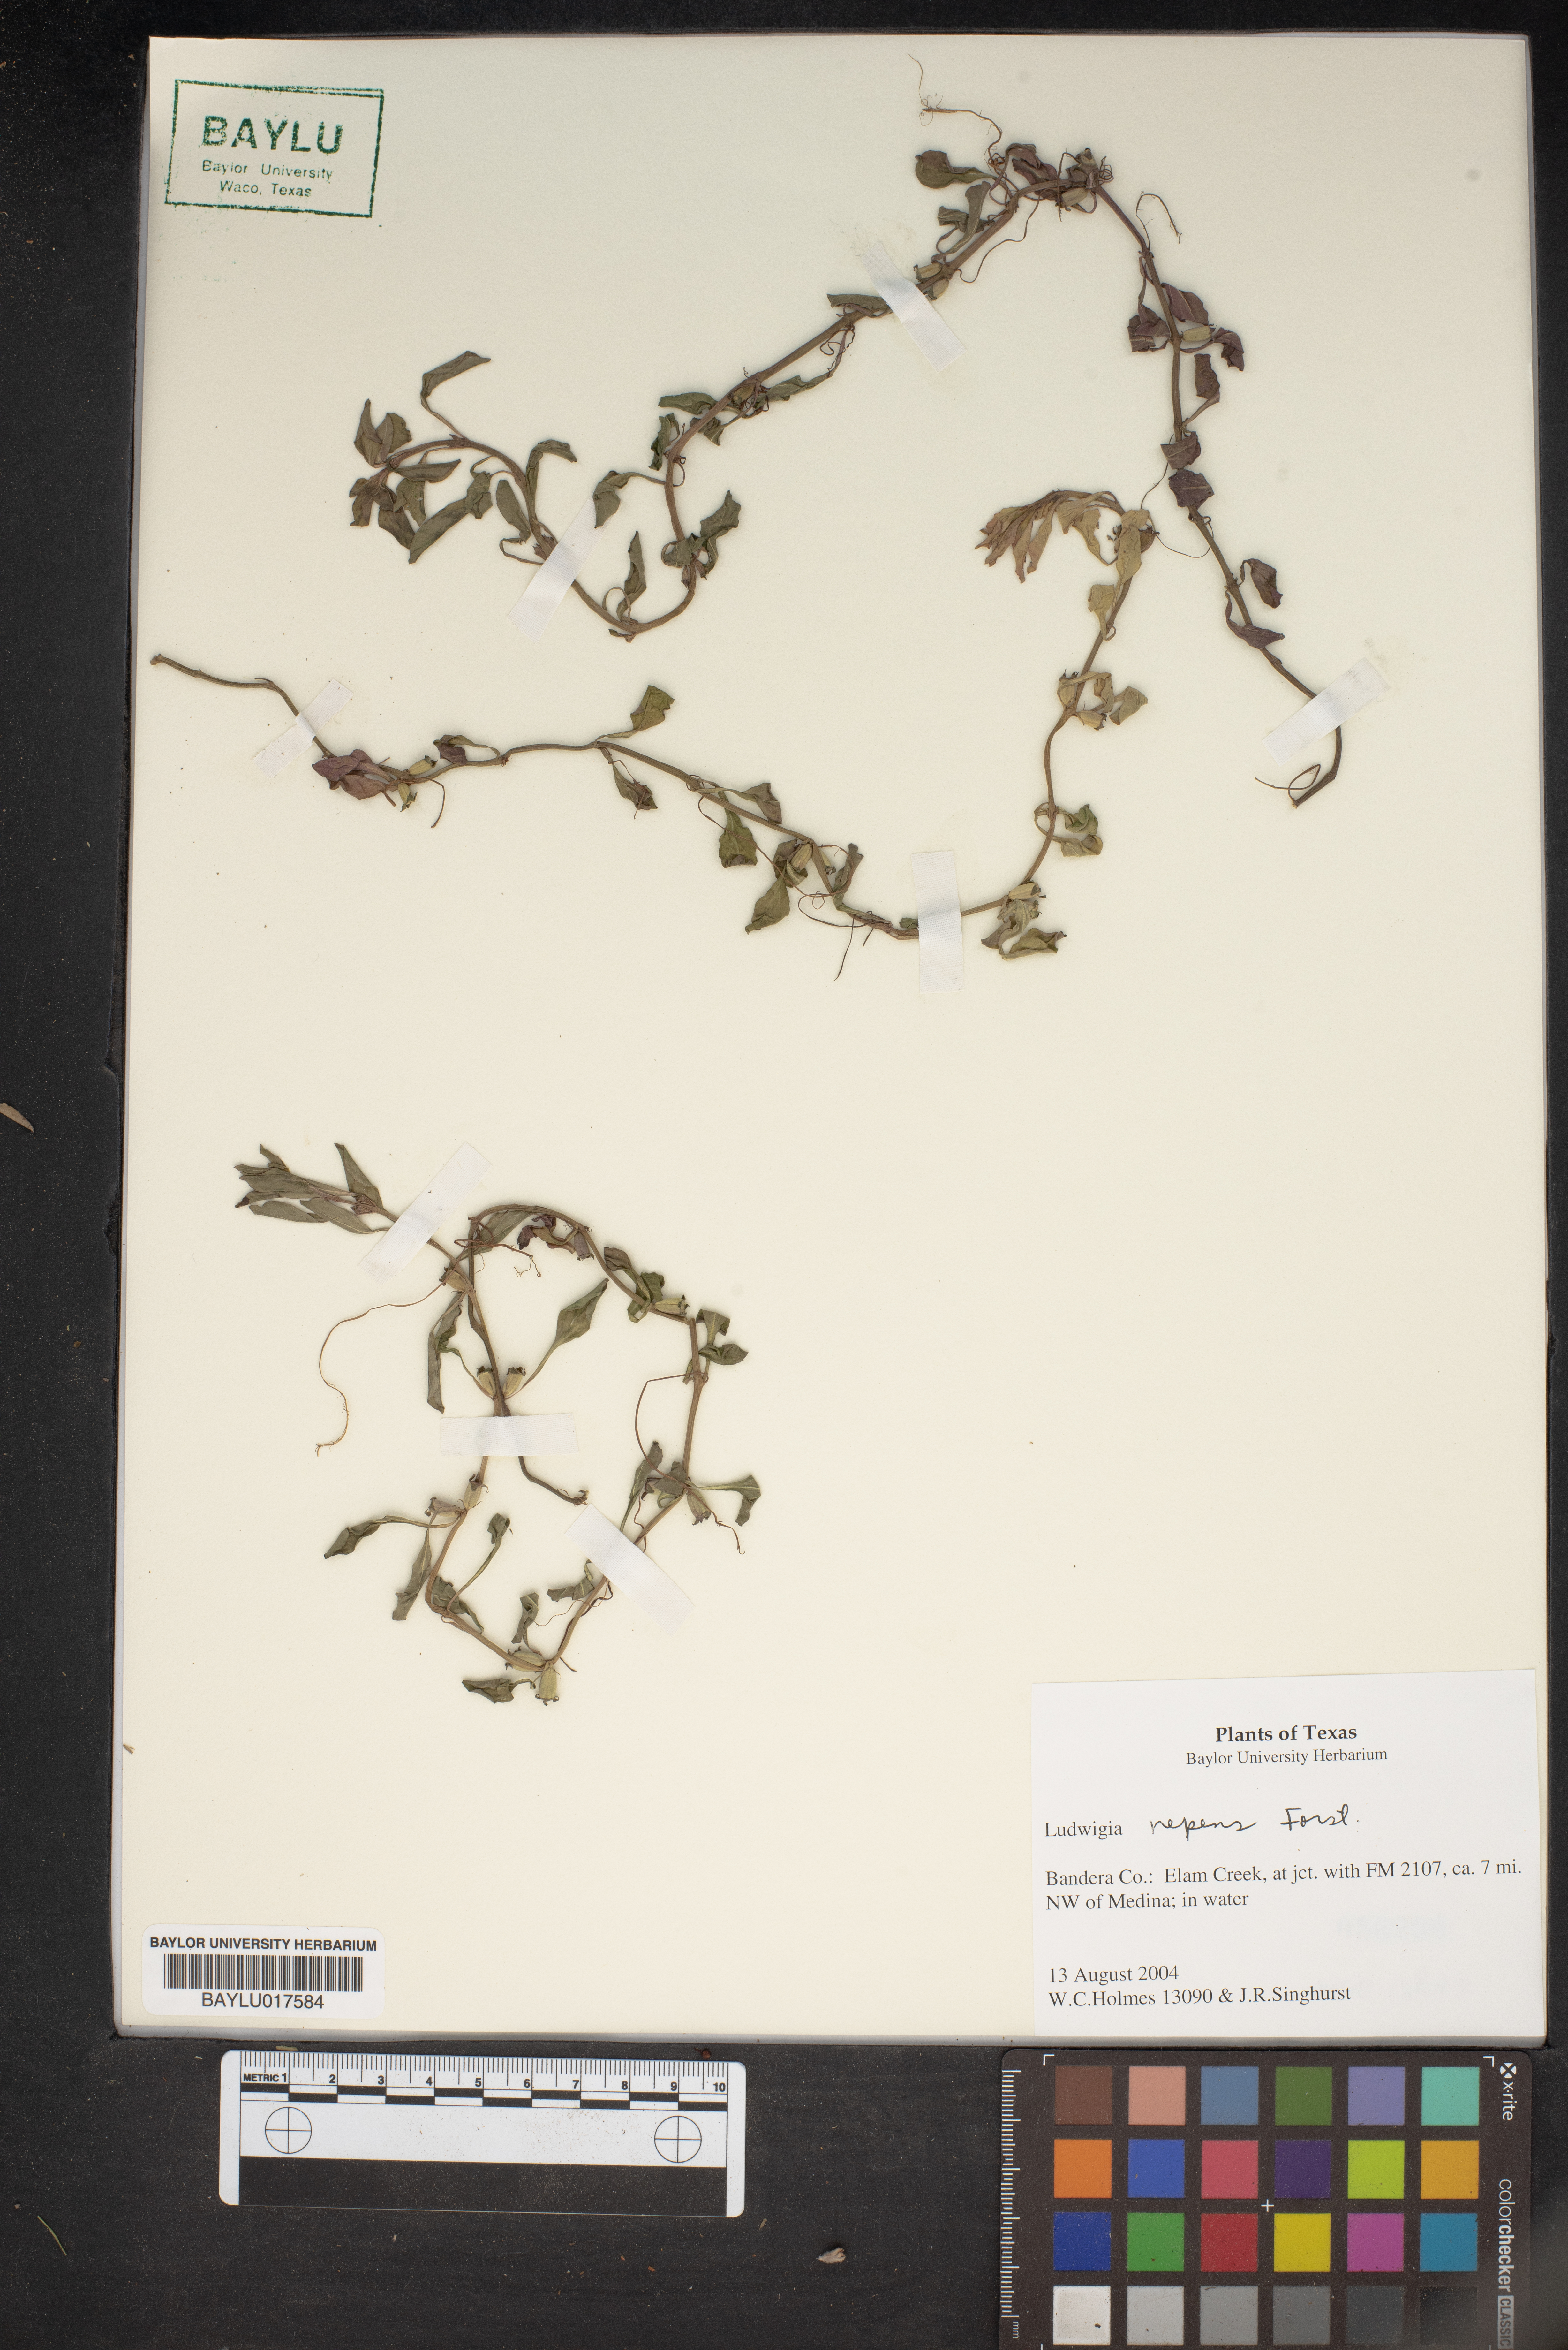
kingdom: Plantae
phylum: Tracheophyta
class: Magnoliopsida
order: Myrtales
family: Onagraceae
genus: Ludwigia
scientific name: Ludwigia repens
